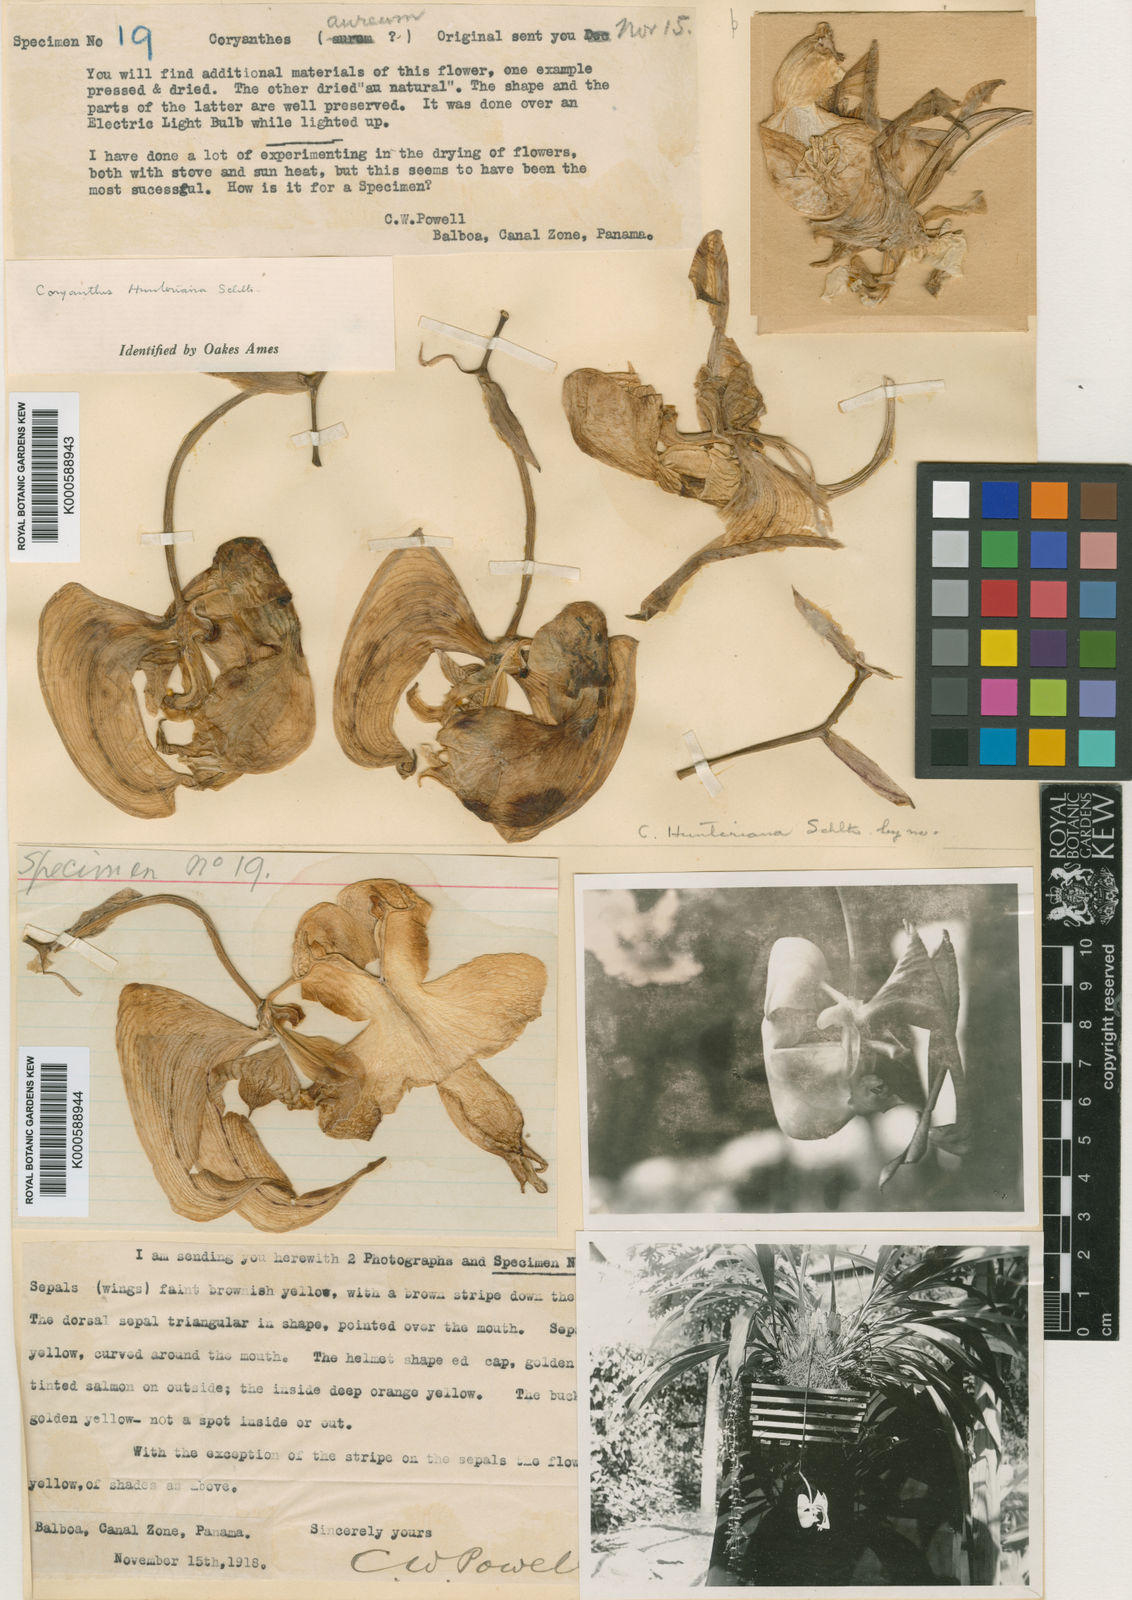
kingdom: Plantae
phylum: Tracheophyta
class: Liliopsida
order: Asparagales
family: Orchidaceae
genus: Coryanthes
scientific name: Coryanthes hunteriana
